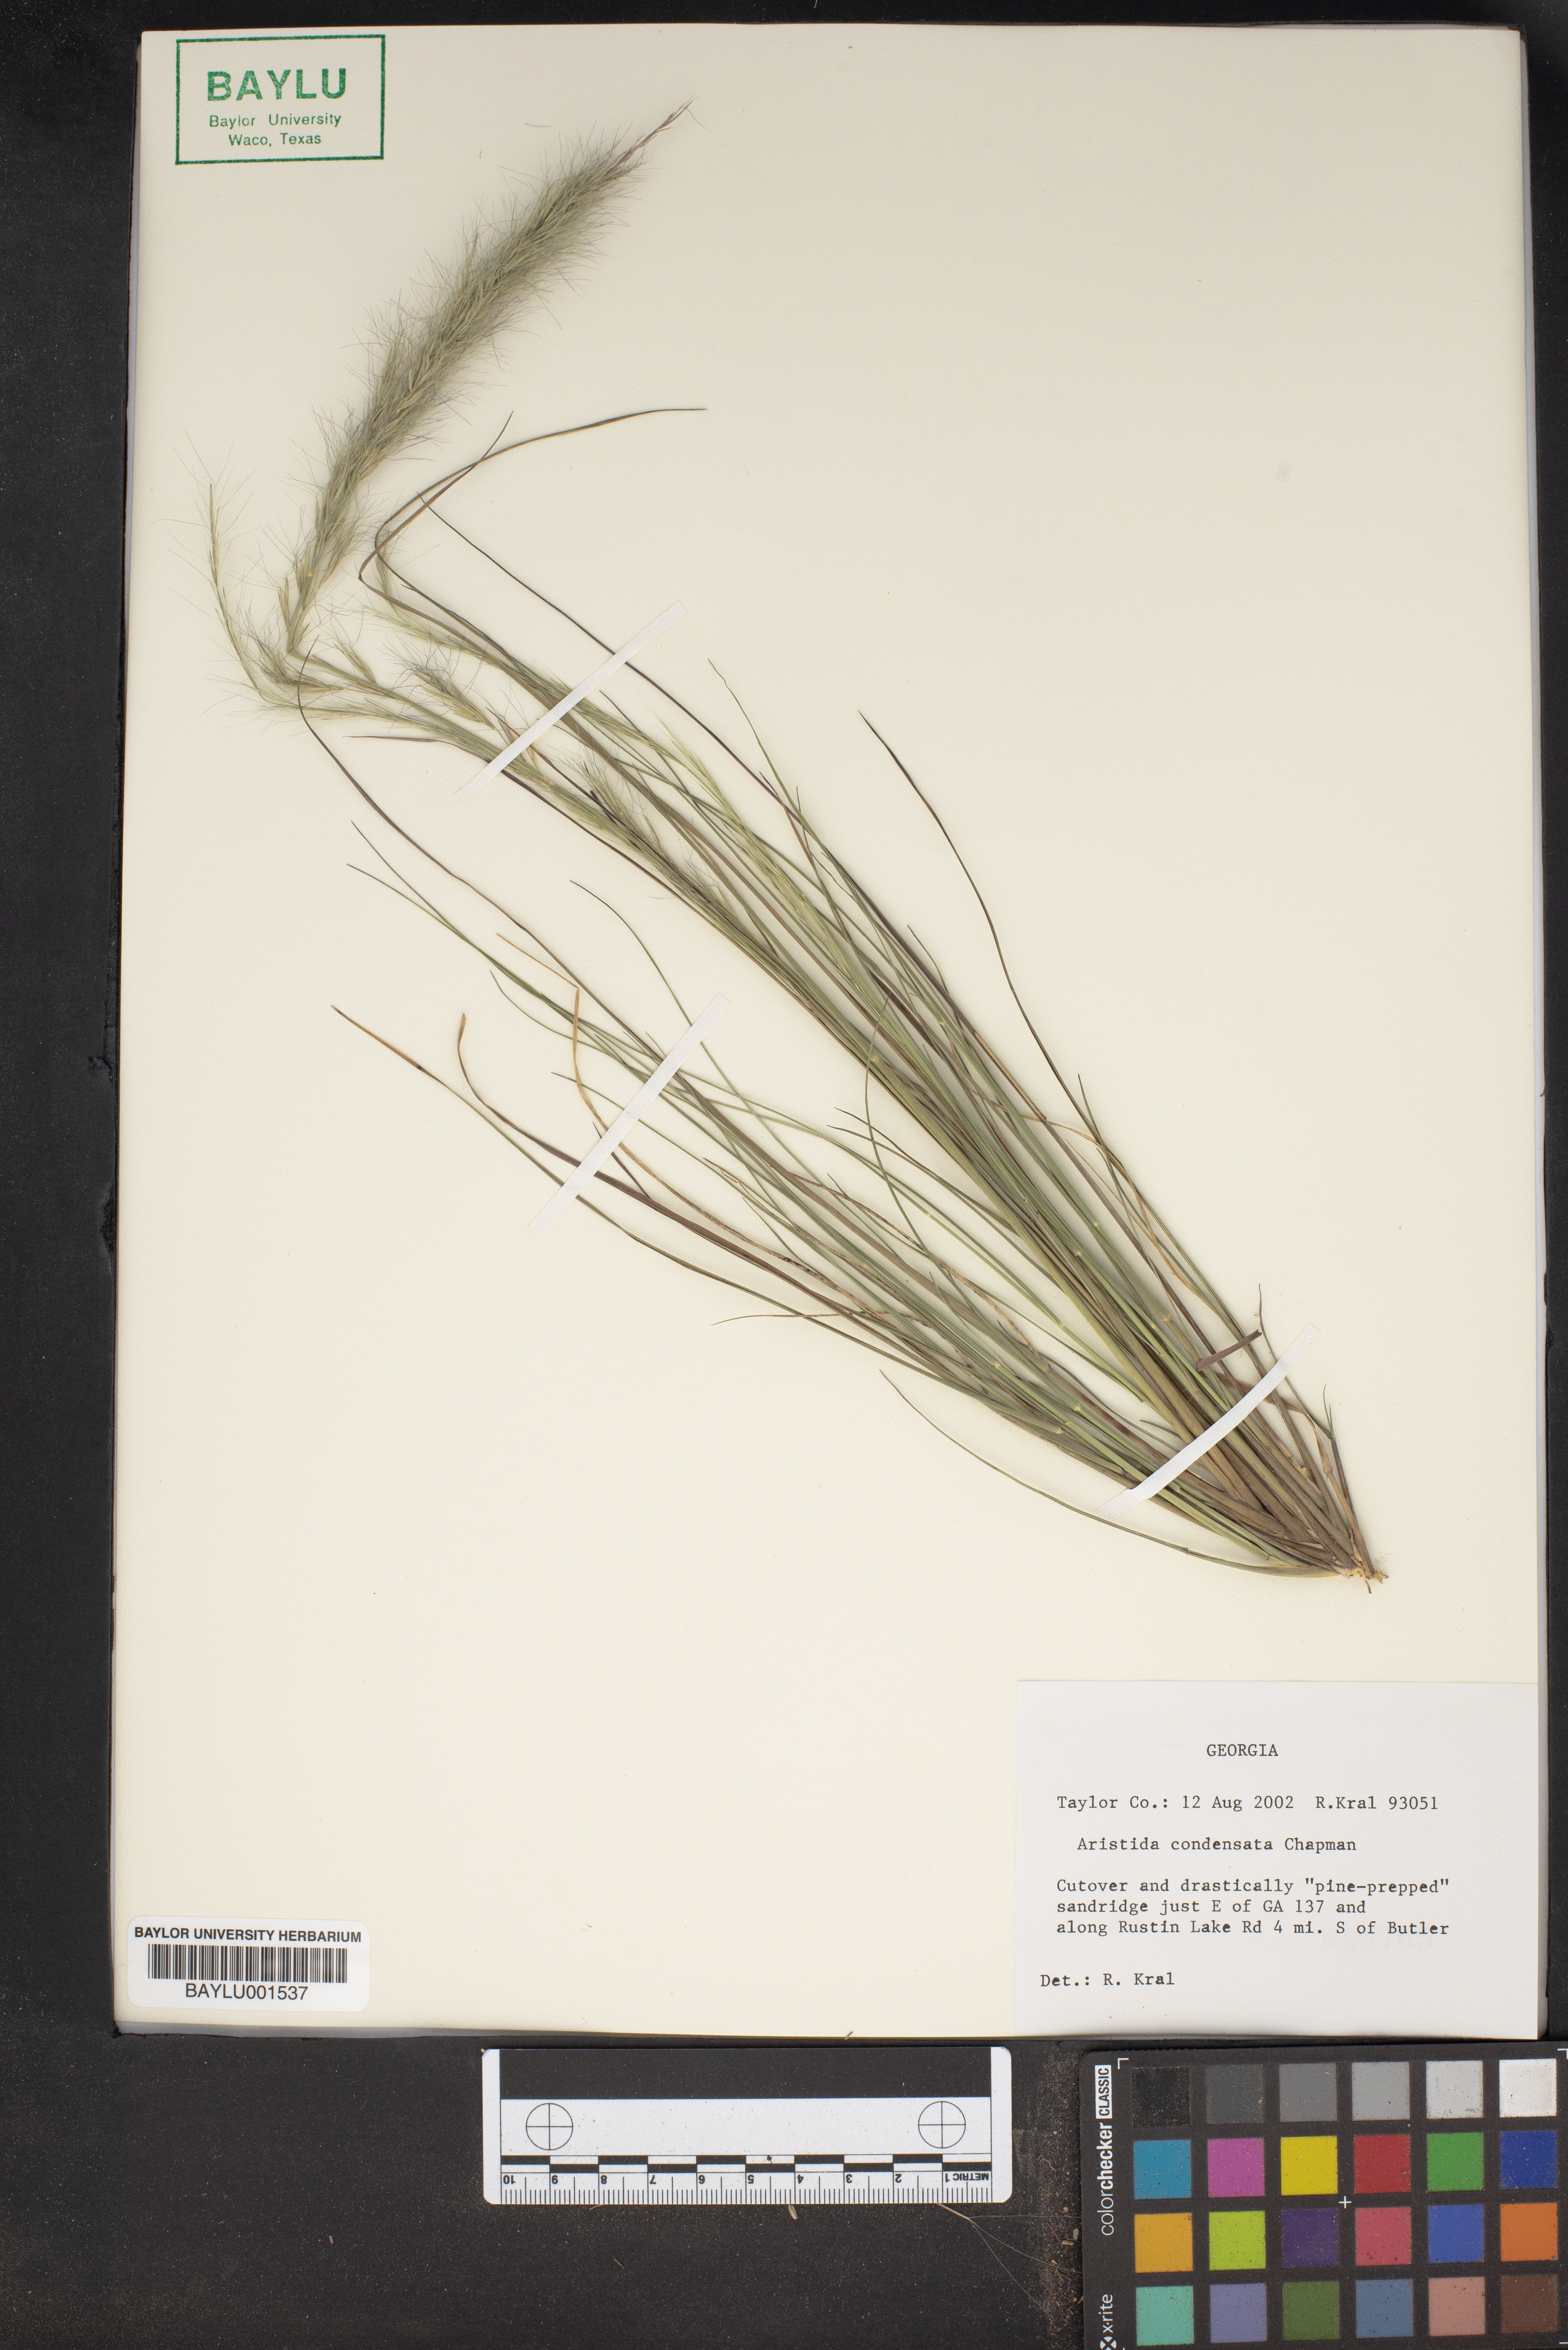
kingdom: Plantae
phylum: Tracheophyta
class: Liliopsida
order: Poales
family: Poaceae
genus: Aristida
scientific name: Aristida condensata
